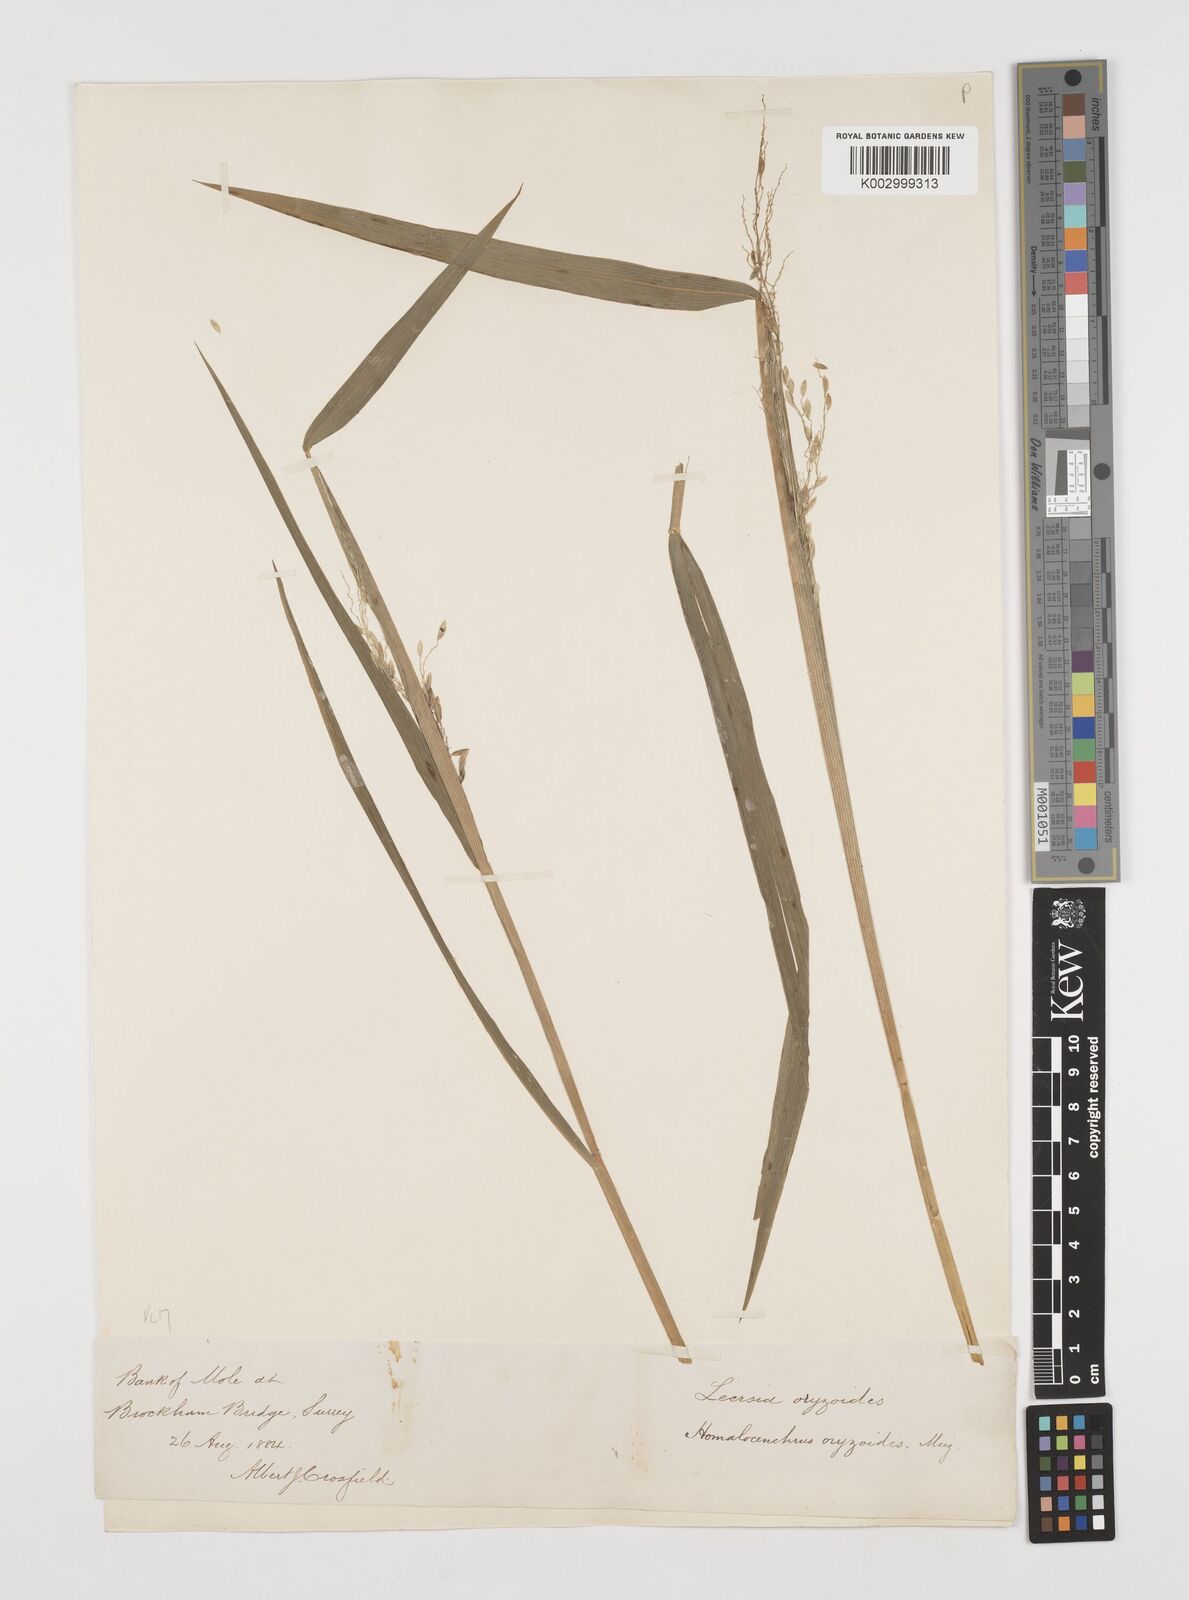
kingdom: Plantae
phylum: Tracheophyta
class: Liliopsida
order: Poales
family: Poaceae
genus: Leersia
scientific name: Leersia oryzoides
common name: Cut-grass
